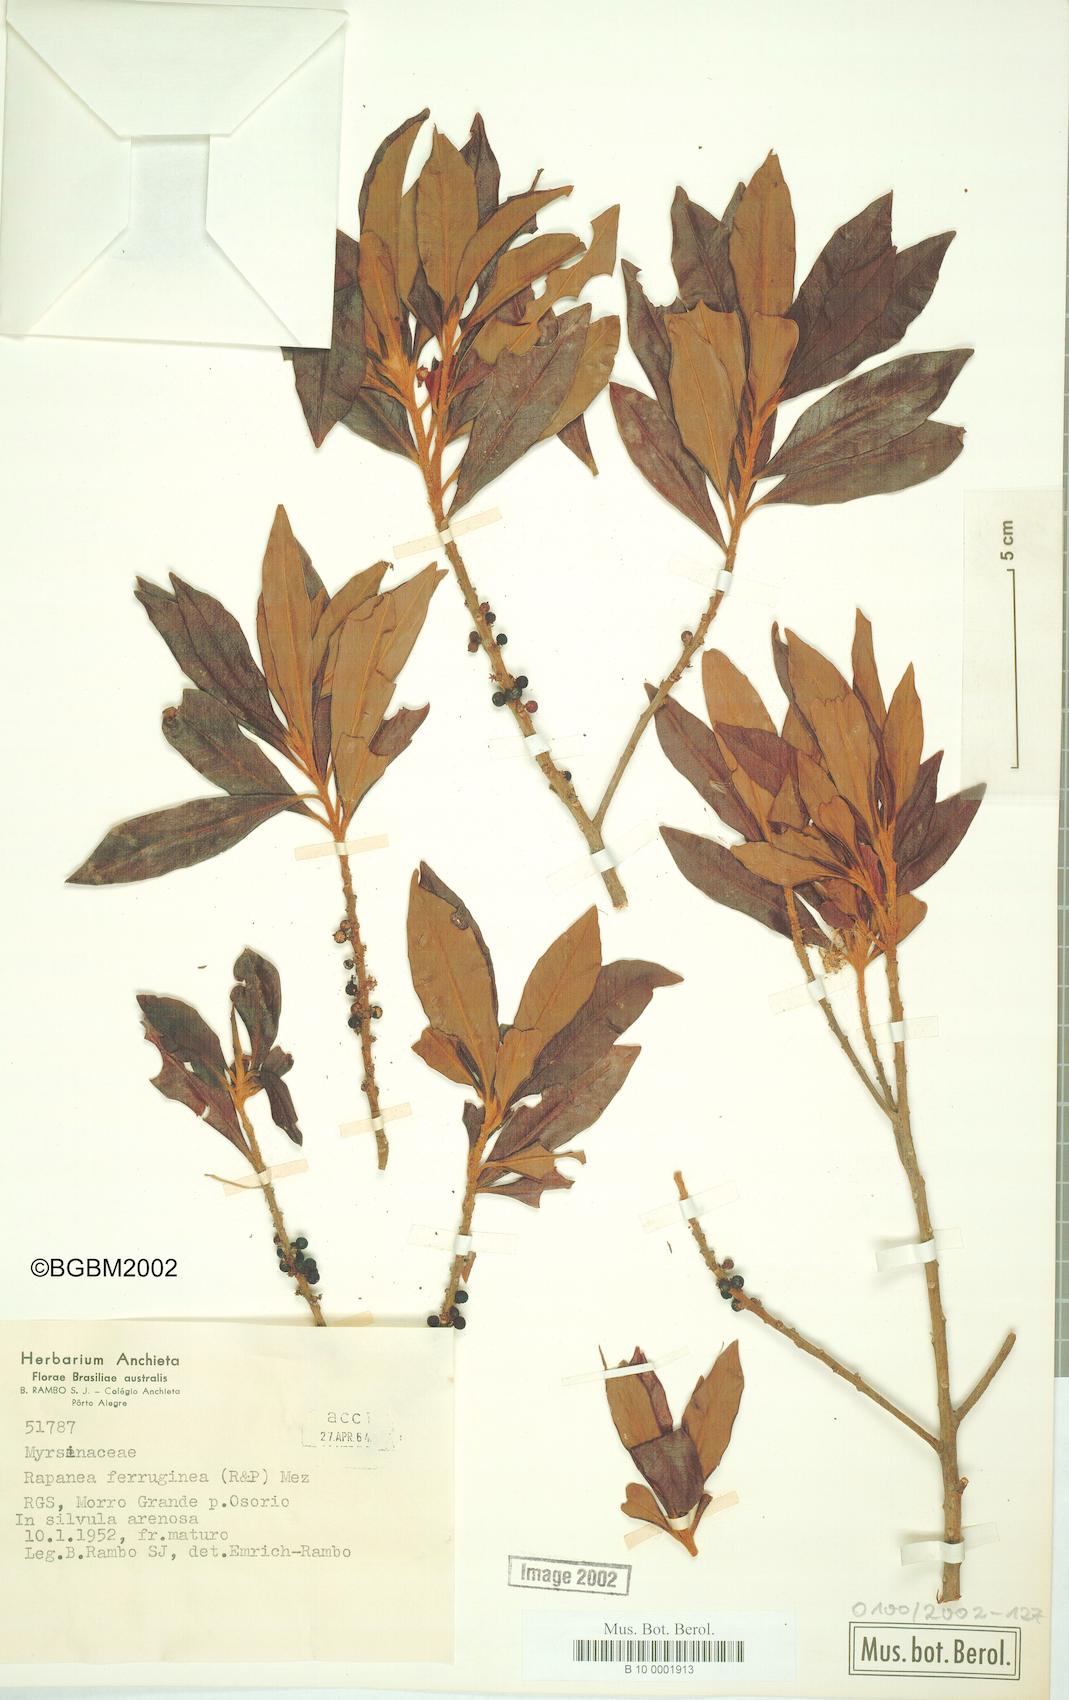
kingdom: Plantae
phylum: Tracheophyta
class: Magnoliopsida
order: Ericales
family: Primulaceae
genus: Myrsine
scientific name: Myrsine coriacea
